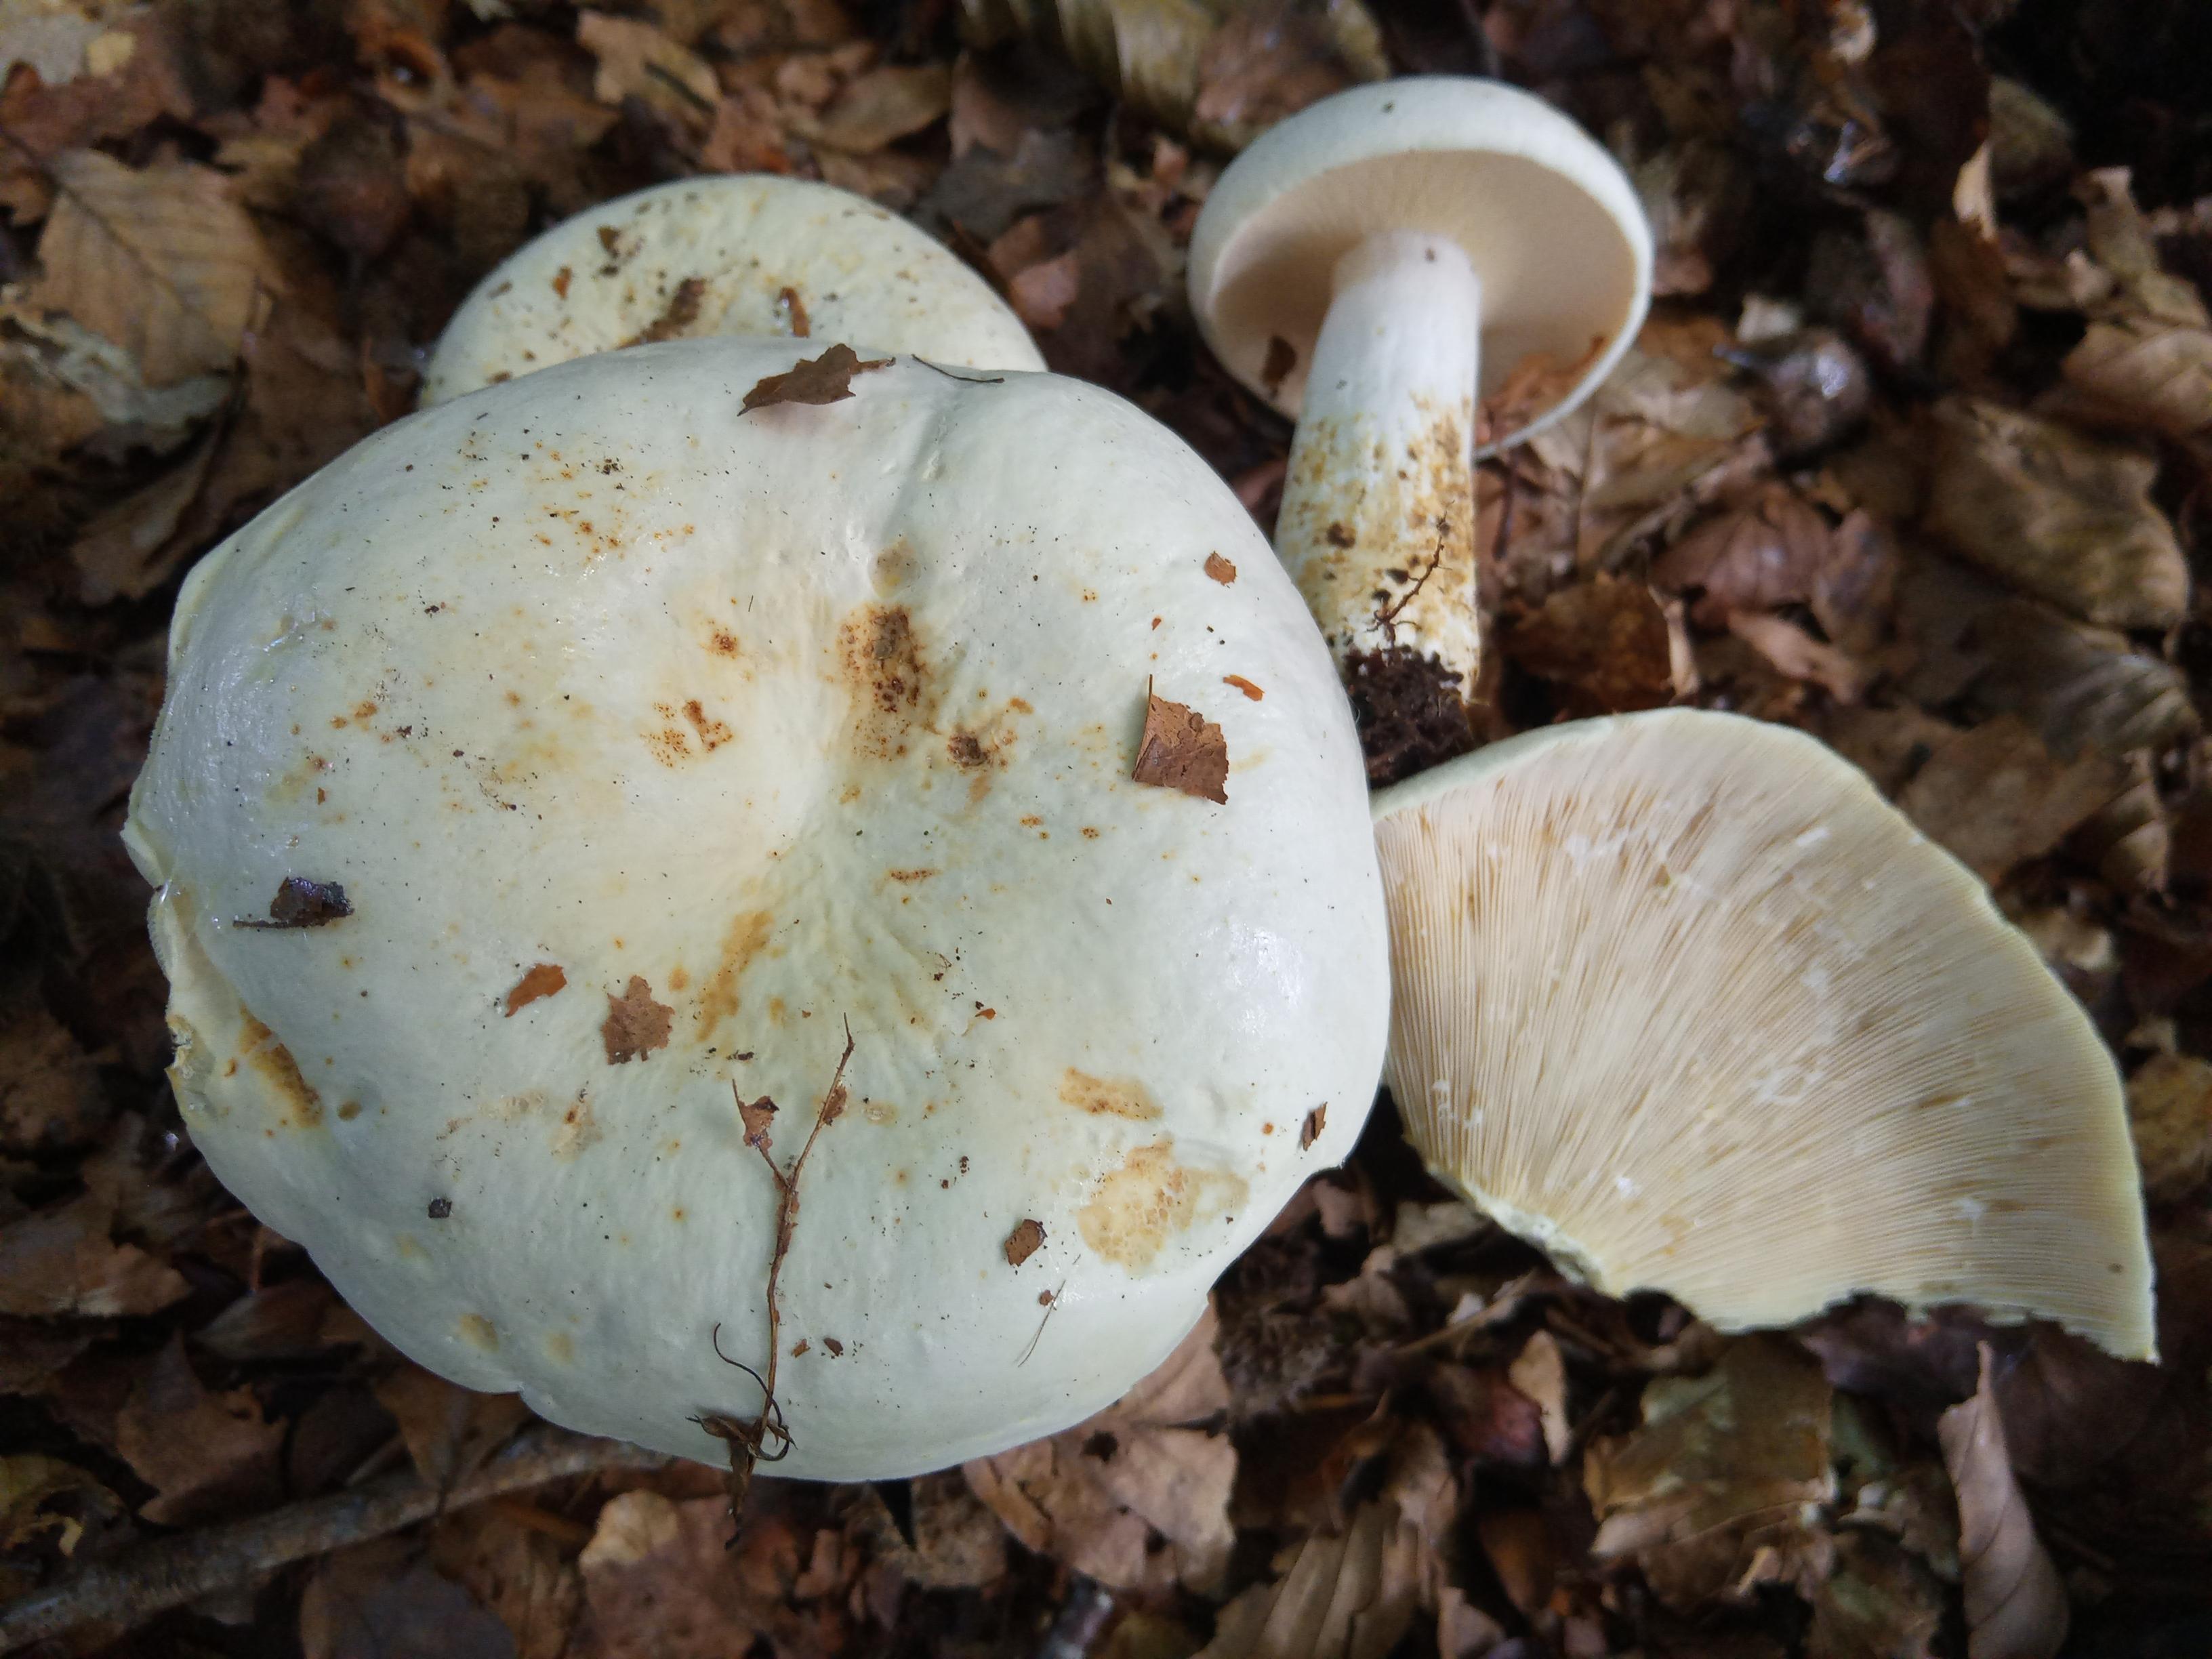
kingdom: Fungi
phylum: Basidiomycota
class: Agaricomycetes
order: Russulales
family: Russulaceae
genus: Lactifluus
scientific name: Lactifluus piperatus
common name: peber-mælkehat
